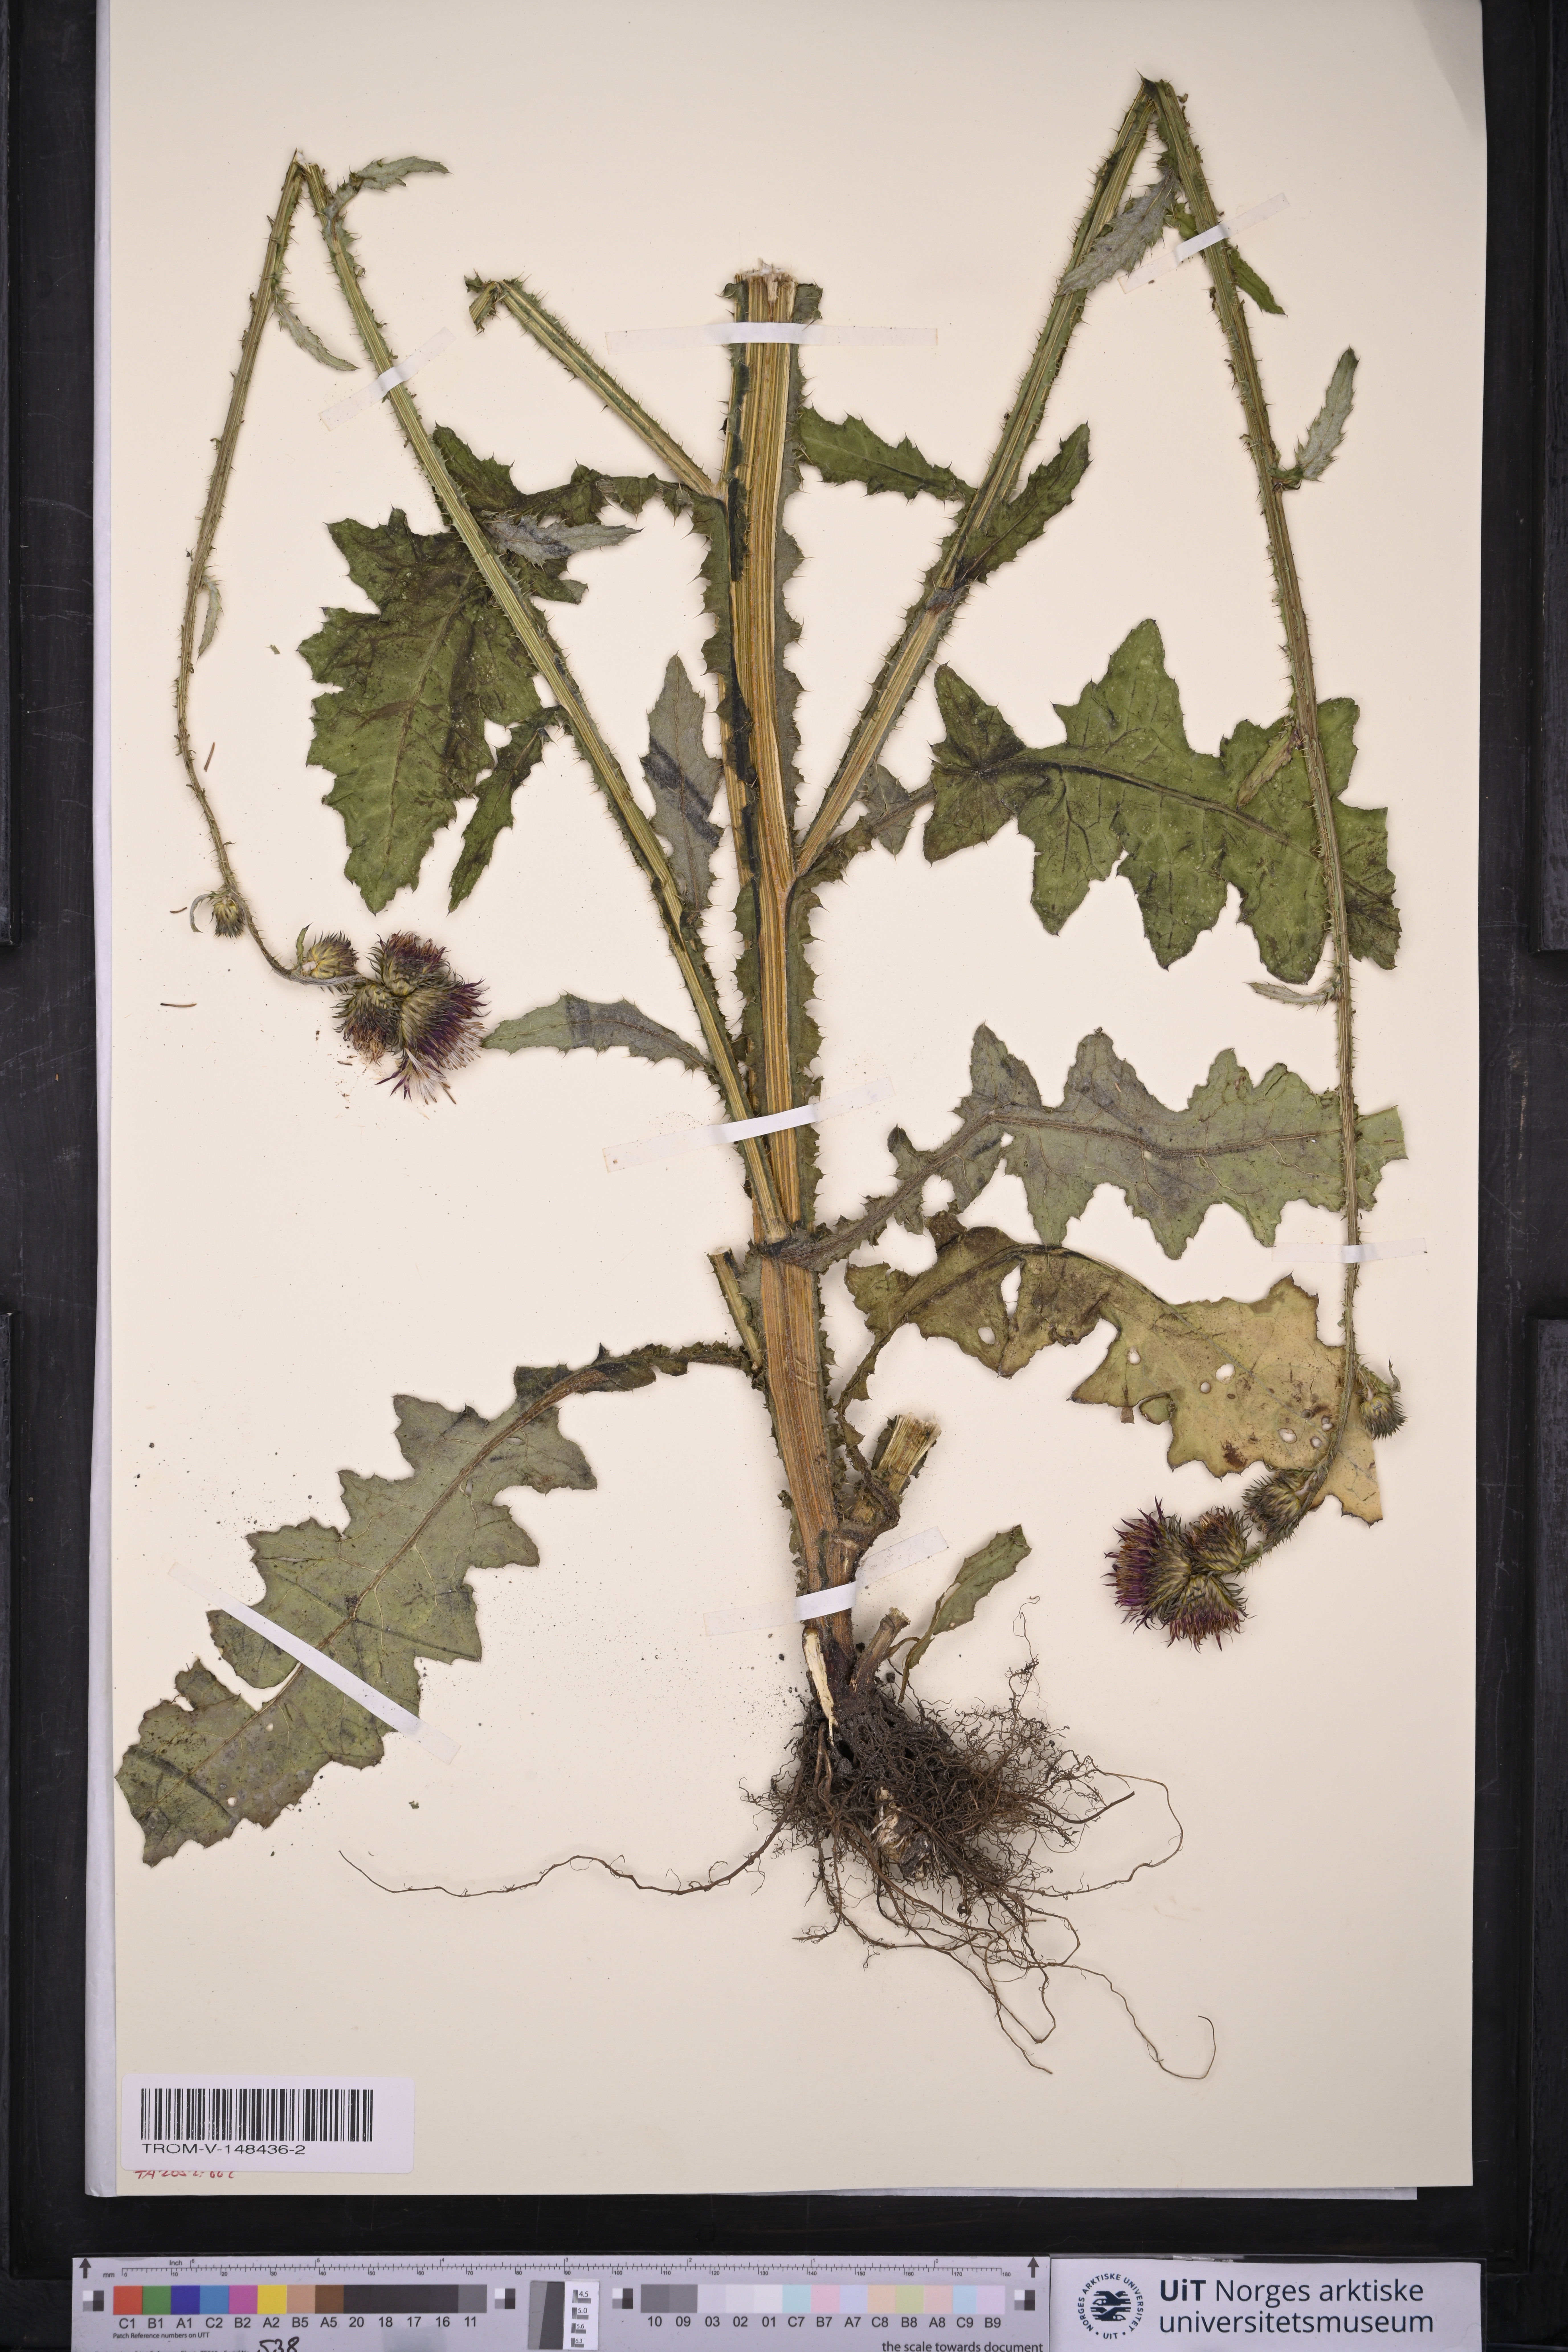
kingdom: Plantae
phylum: Tracheophyta
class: Magnoliopsida
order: Asterales
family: Asteraceae
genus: Carduus
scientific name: Carduus crispus
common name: Welted thistle
